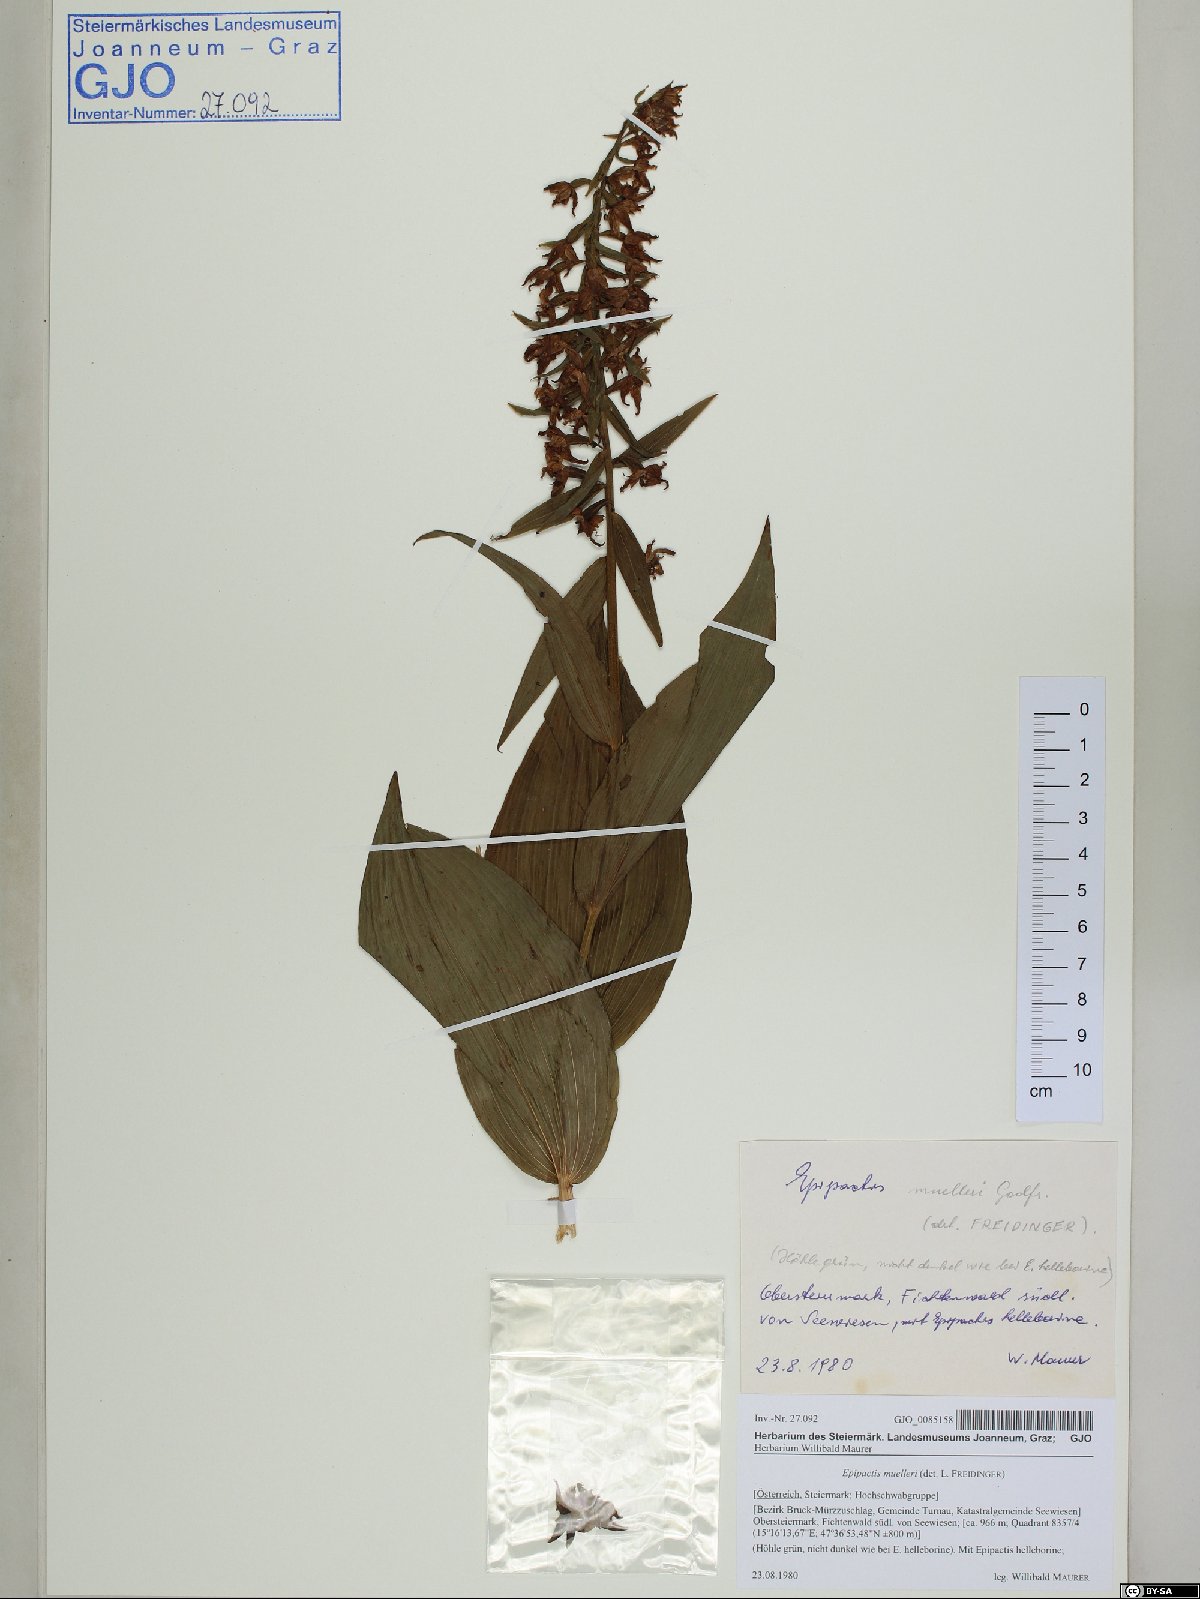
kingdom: Plantae
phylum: Tracheophyta
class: Liliopsida
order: Asparagales
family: Orchidaceae
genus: Epipactis
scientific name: Epipactis muelleri
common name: Mueller's epipactis
